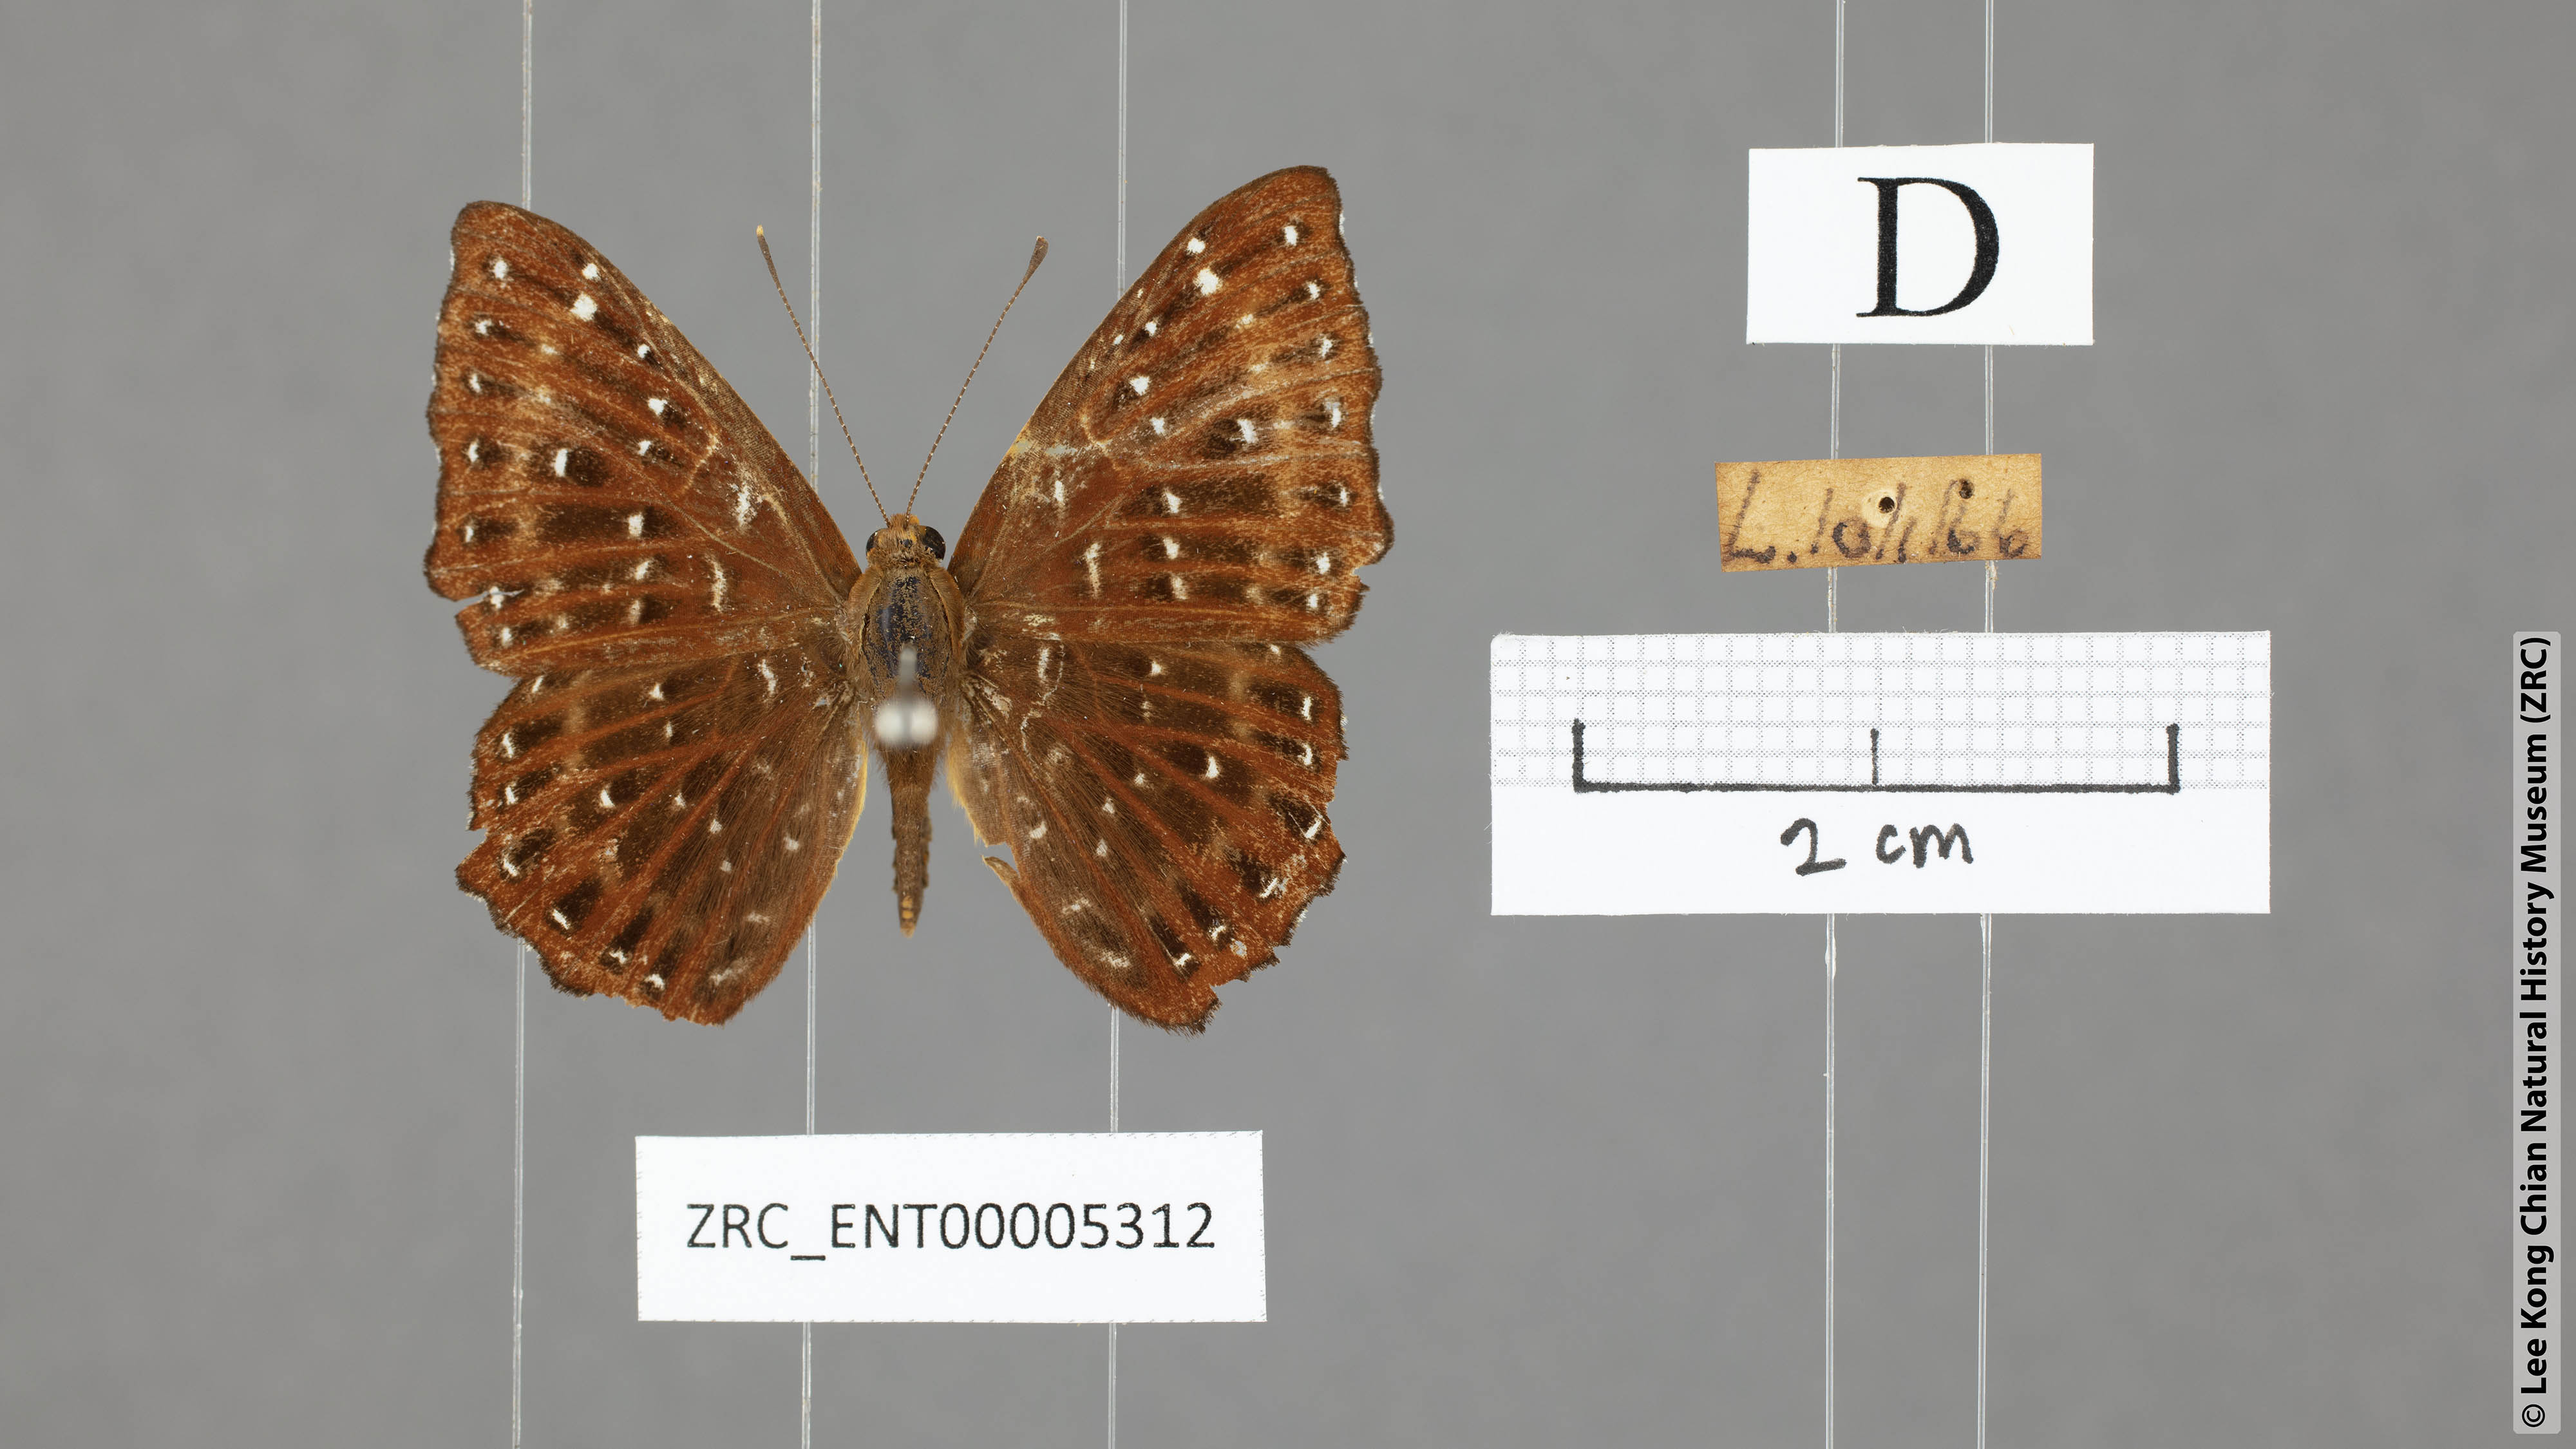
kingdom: Animalia
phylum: Arthropoda
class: Insecta
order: Lepidoptera
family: Riodinidae
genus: Zemeros
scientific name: Zemeros flegyas
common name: Punchinello
